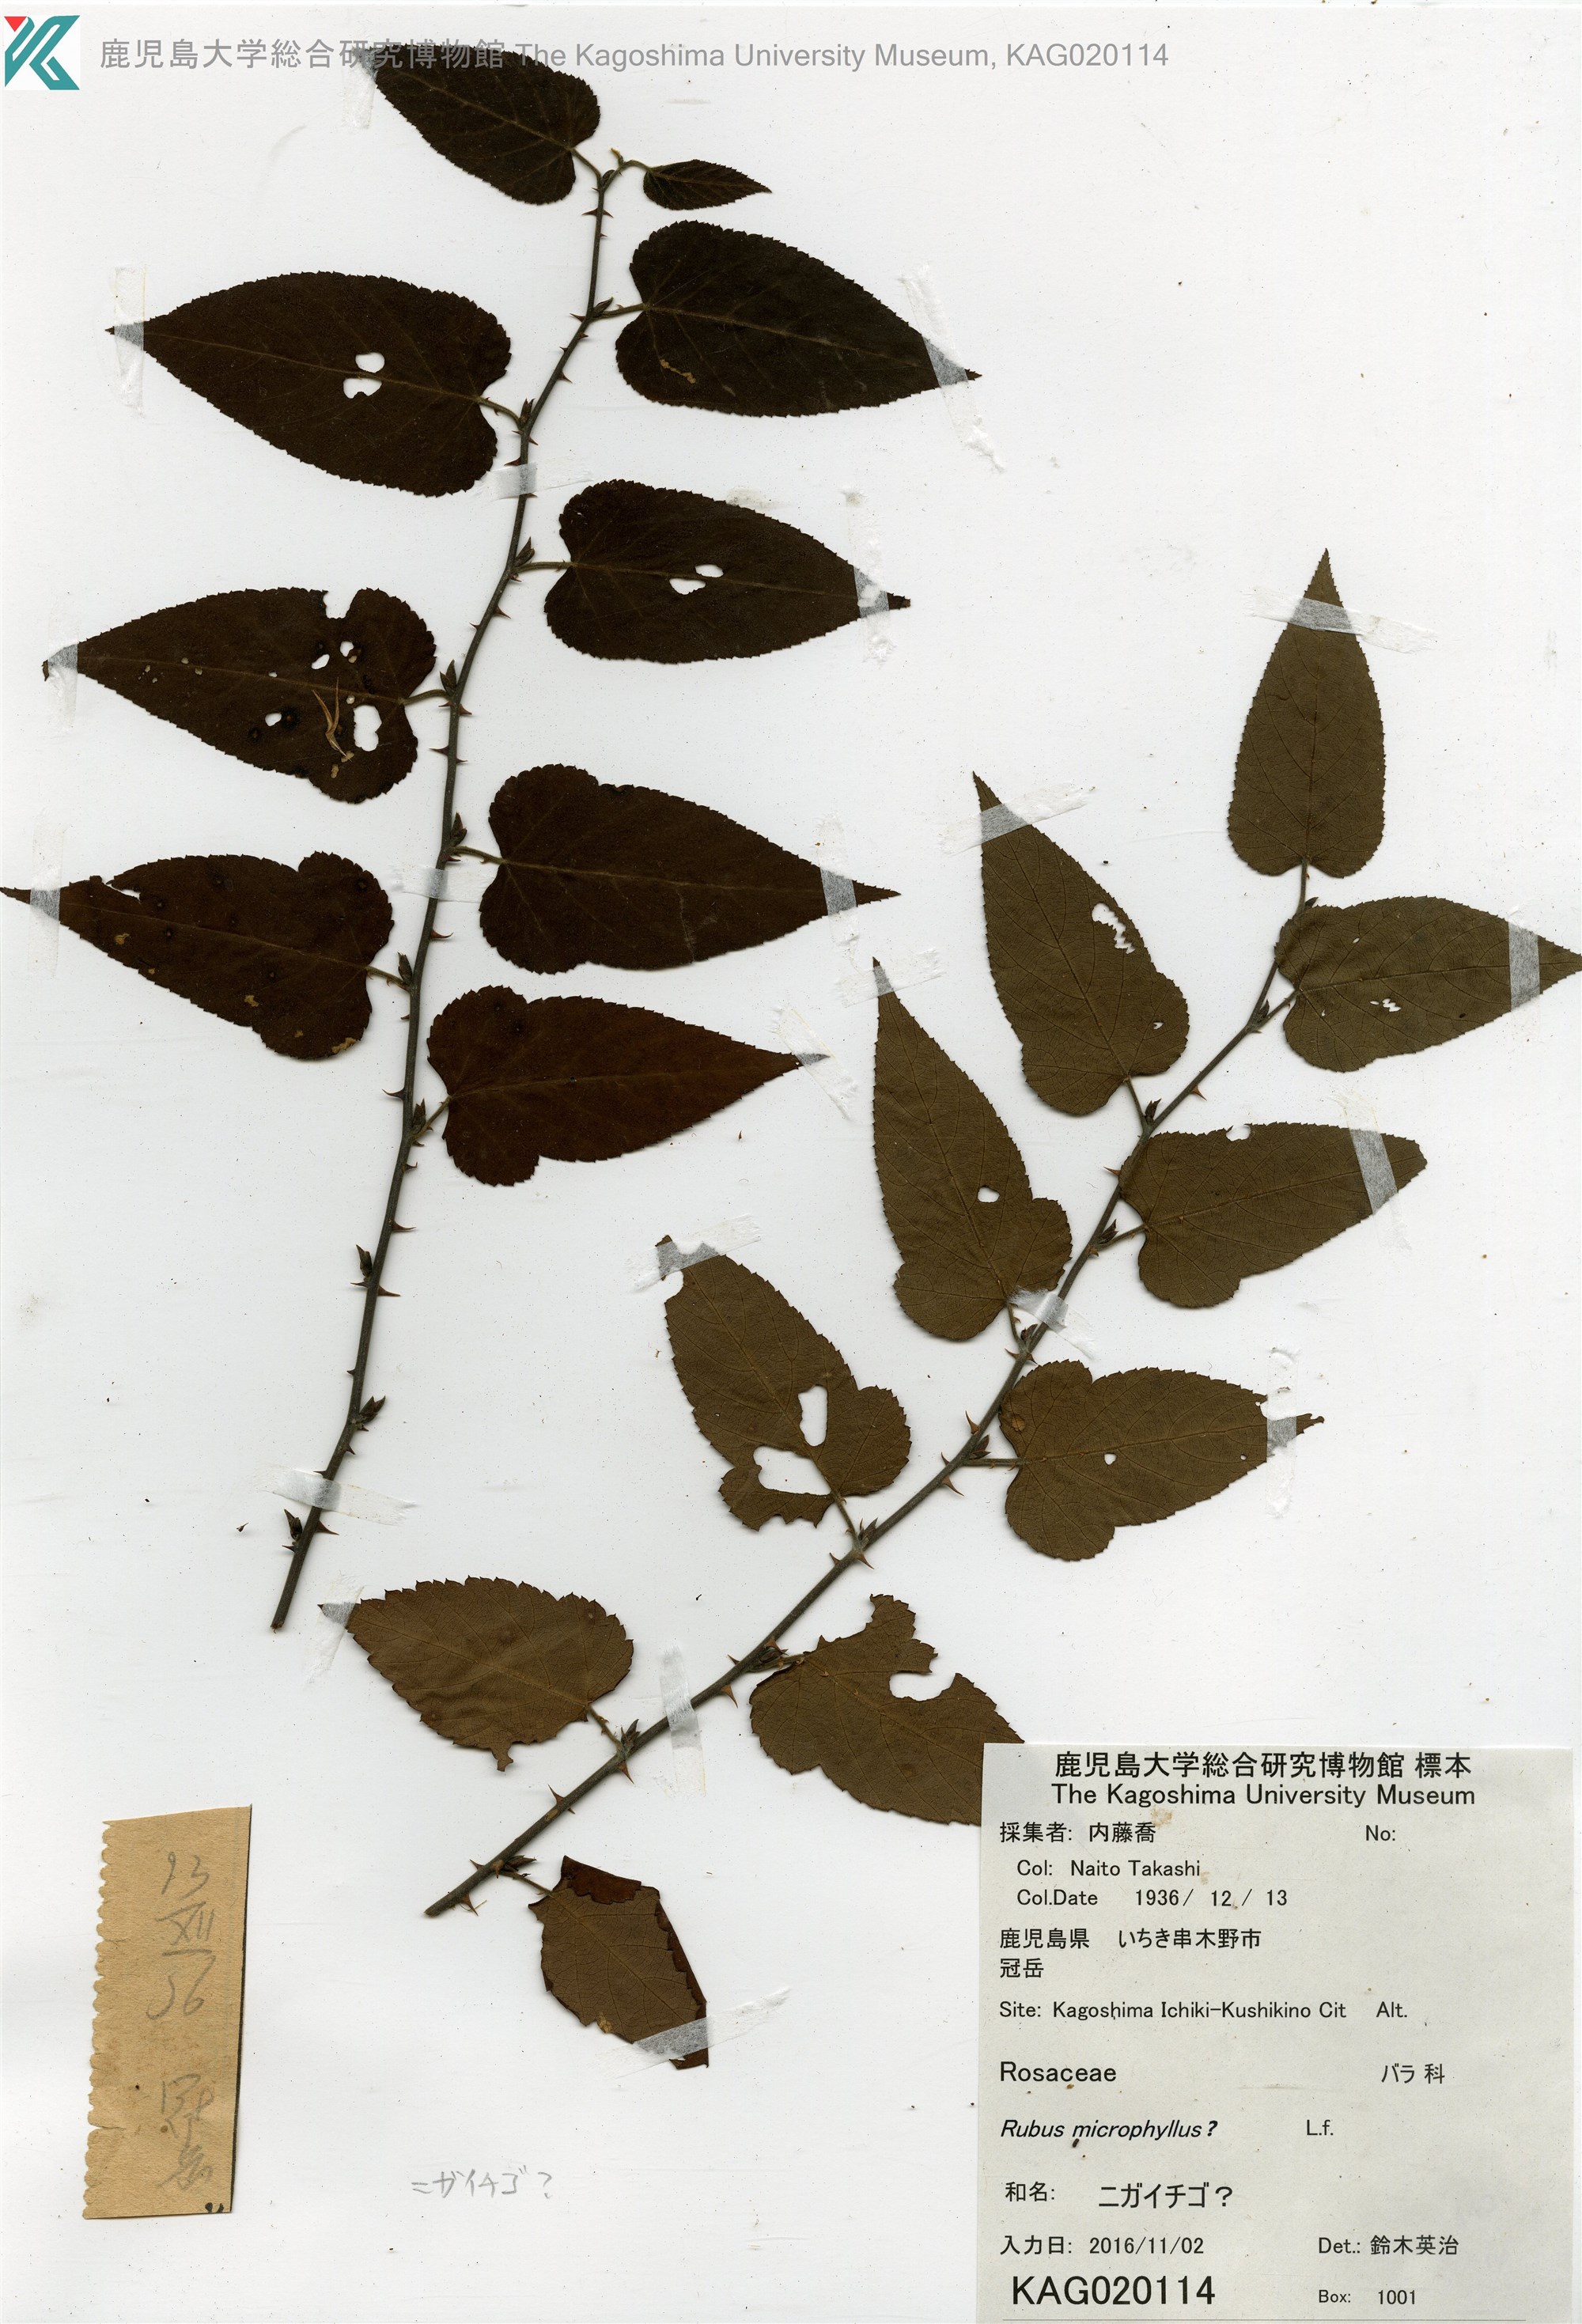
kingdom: Plantae
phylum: Tracheophyta
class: Magnoliopsida
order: Rosales
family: Rosaceae
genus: Rubus
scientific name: Rubus corchorifolius
